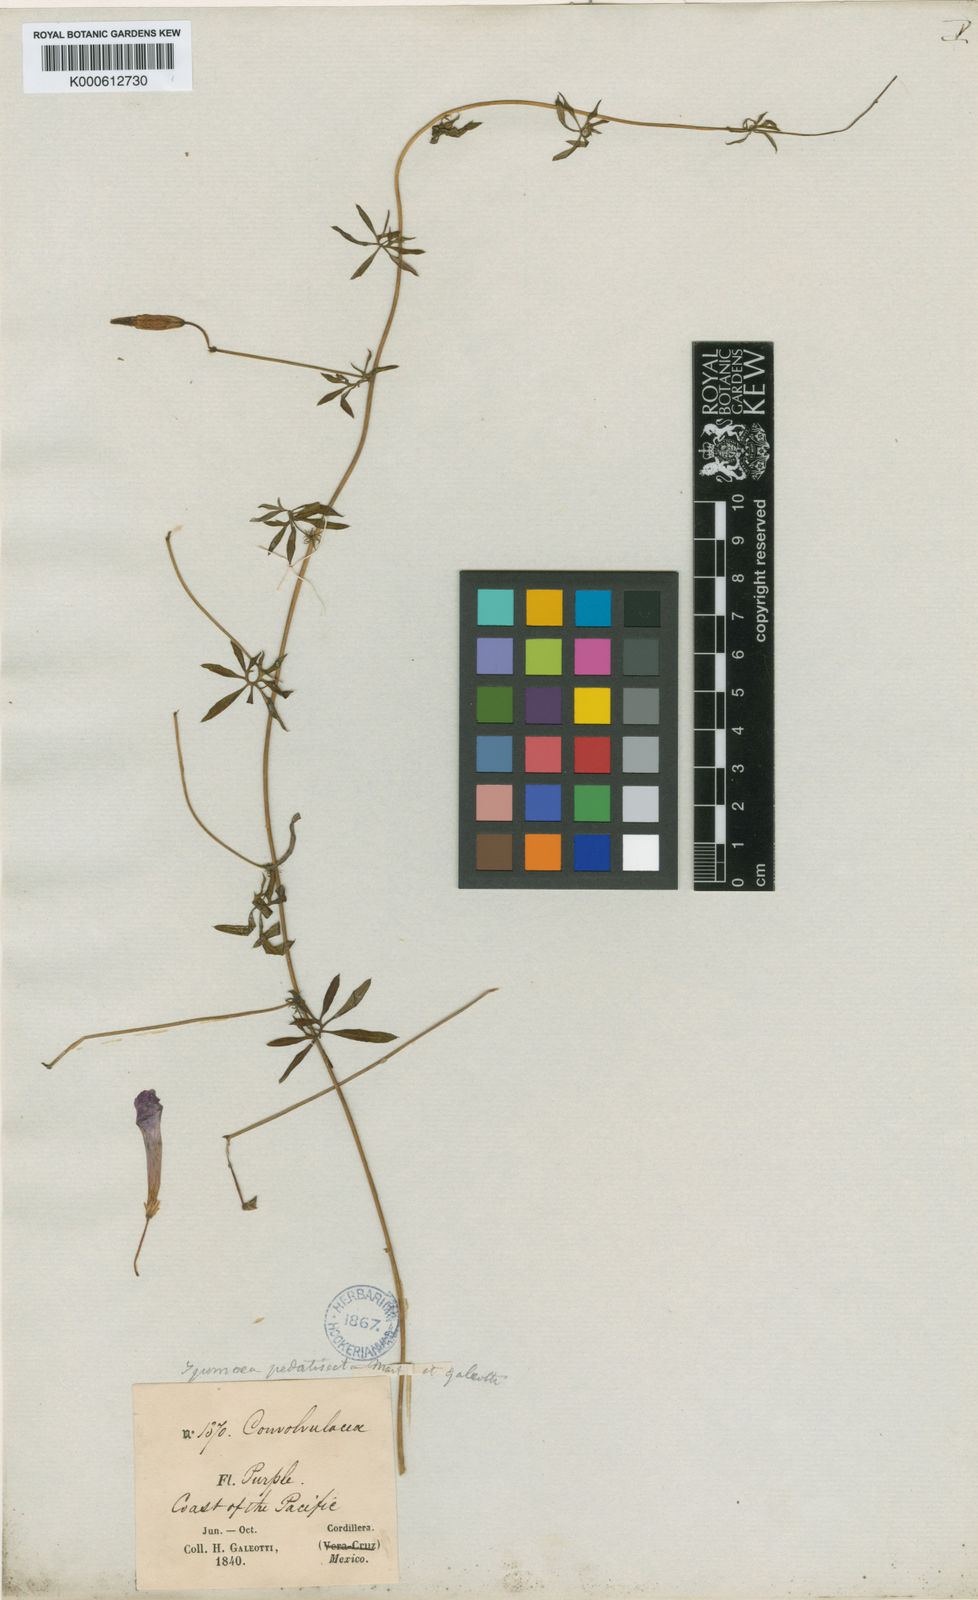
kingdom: Plantae
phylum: Tracheophyta
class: Magnoliopsida
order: Solanales
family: Convolvulaceae
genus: Ipomoea
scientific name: Ipomoea ternifolia
